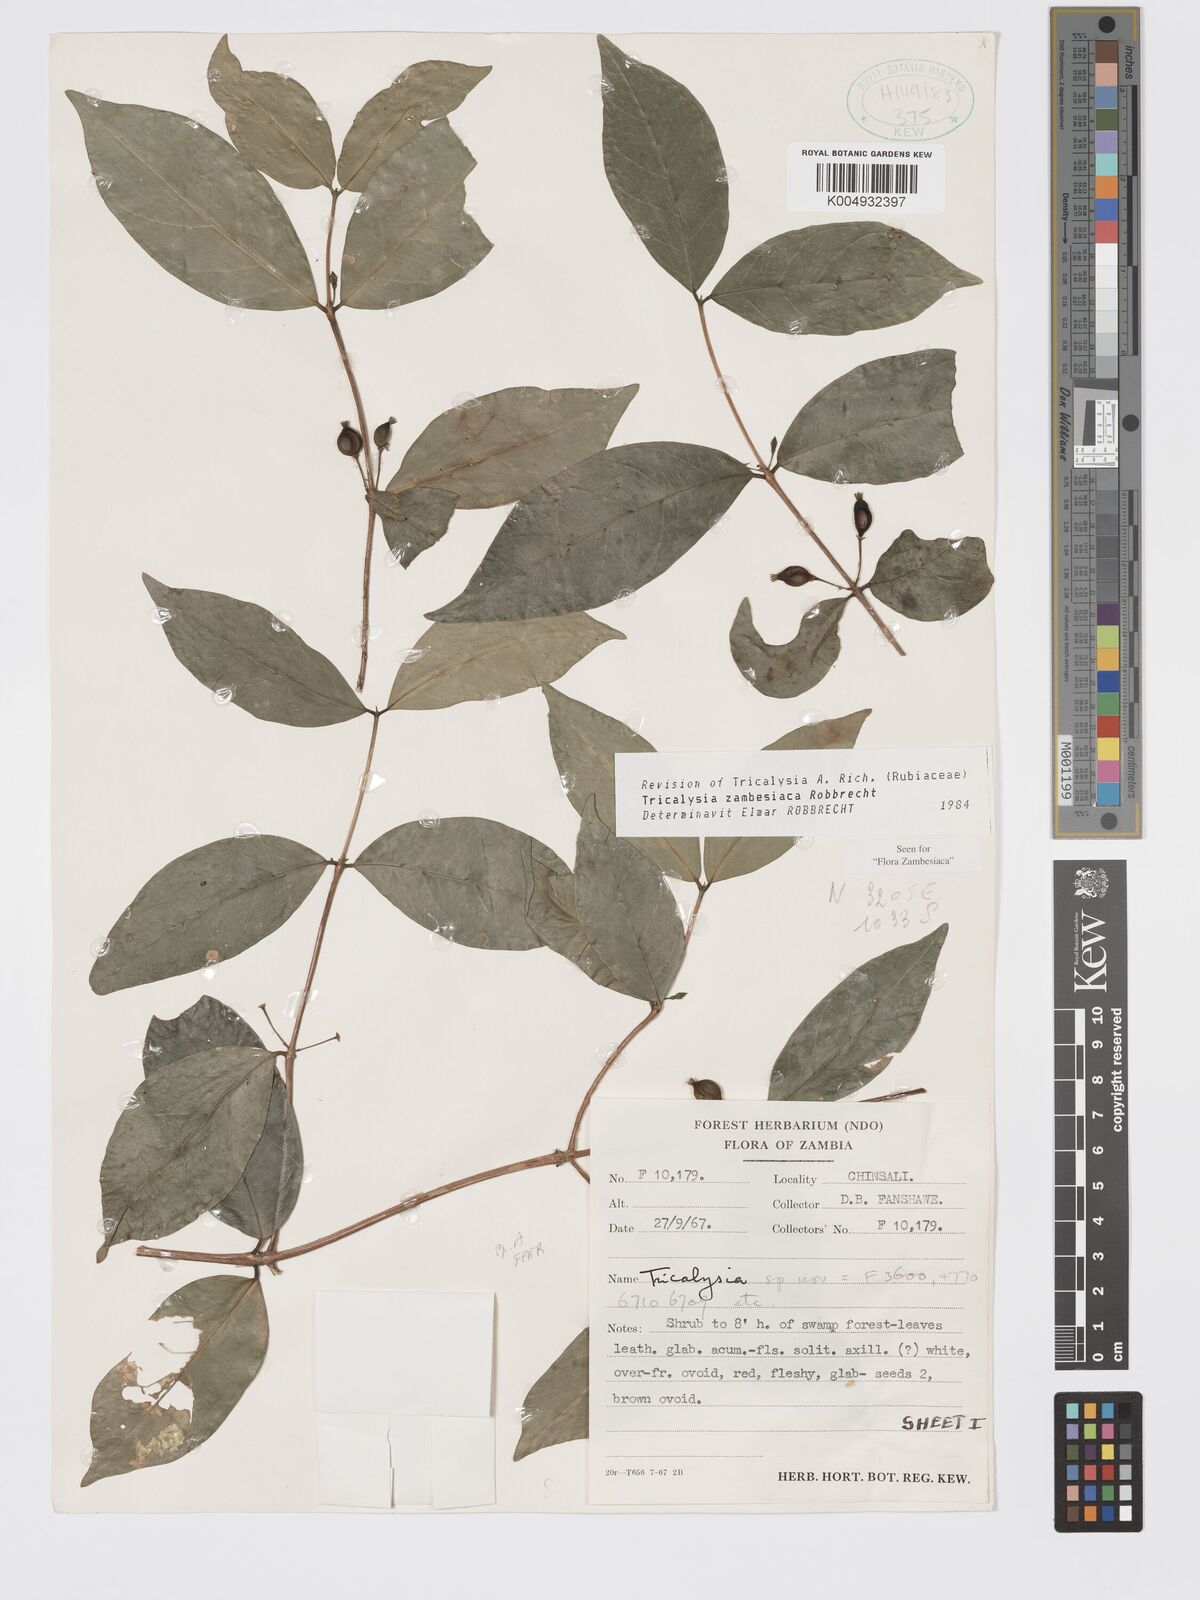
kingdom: Plantae
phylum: Tracheophyta
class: Magnoliopsida
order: Gentianales
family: Rubiaceae
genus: Tricalysia
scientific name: Tricalysia zambesiaca
